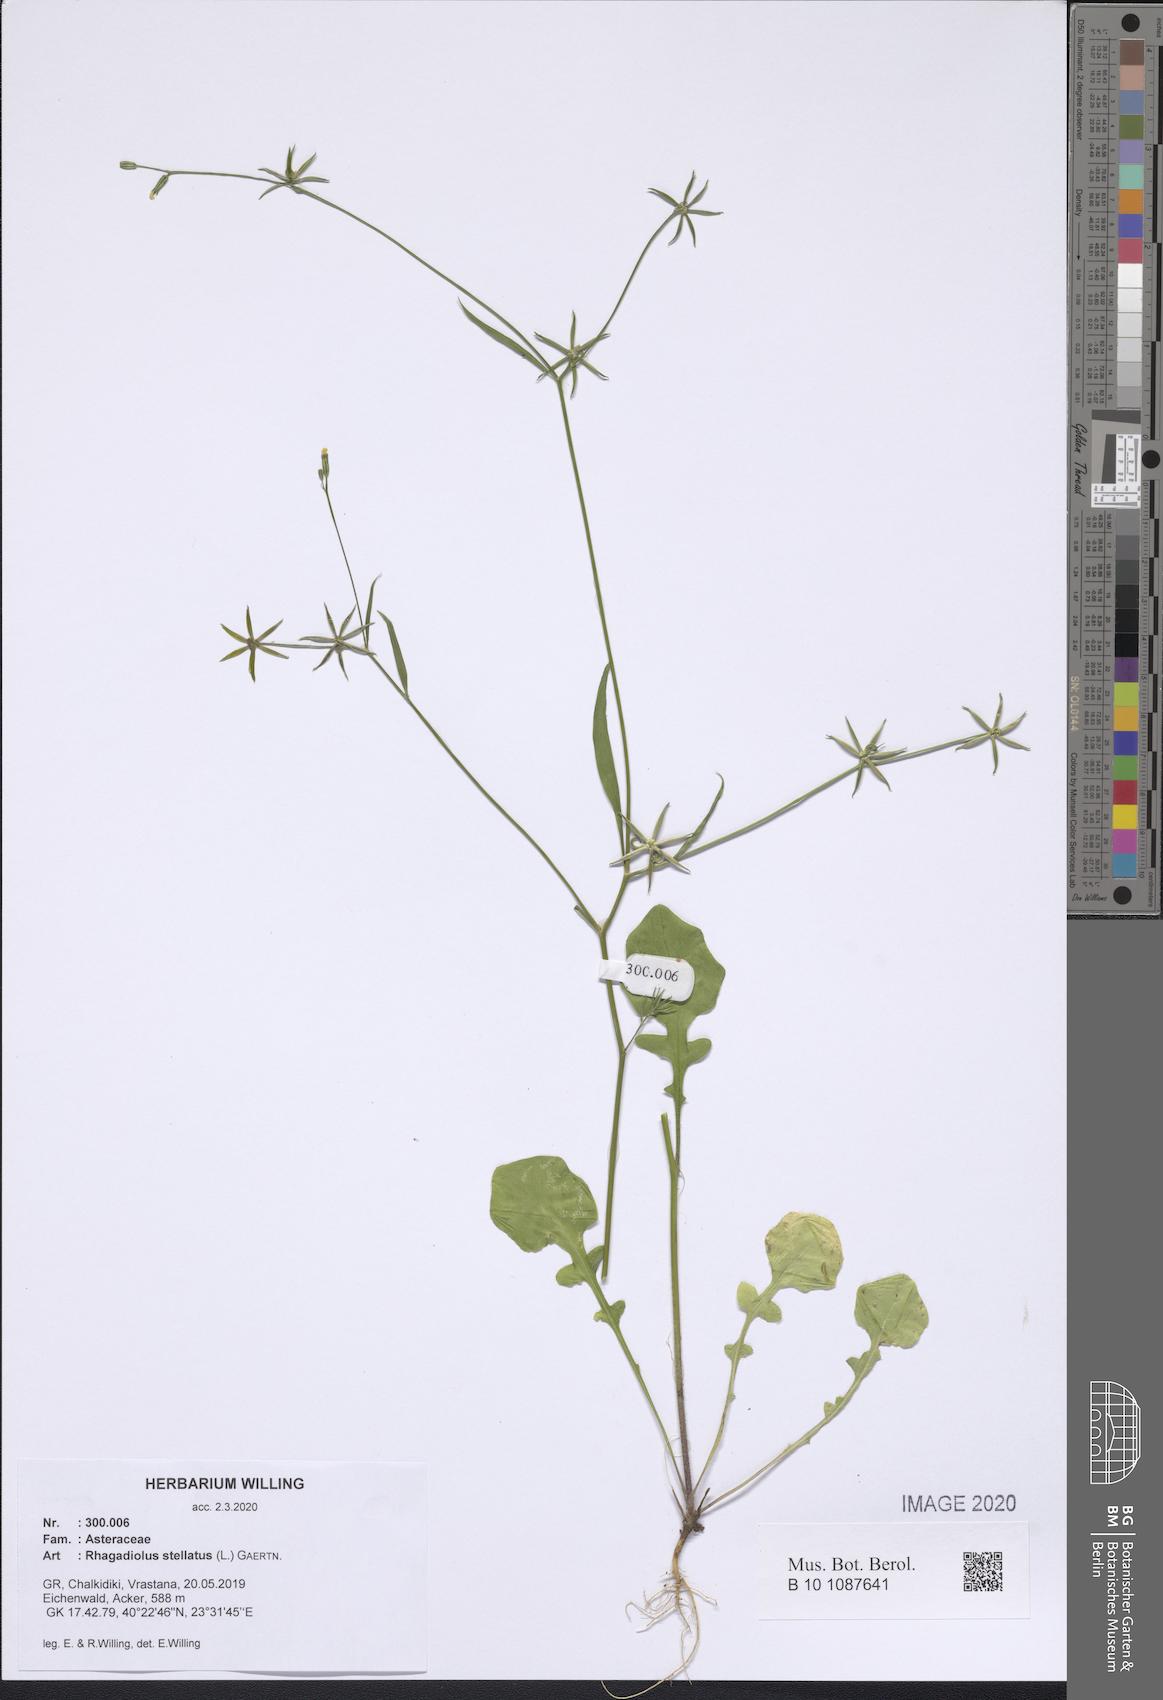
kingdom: Plantae
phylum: Tracheophyta
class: Magnoliopsida
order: Asterales
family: Asteraceae
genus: Rhagadiolus
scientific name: Rhagadiolus stellatus
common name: Star hawkbit
